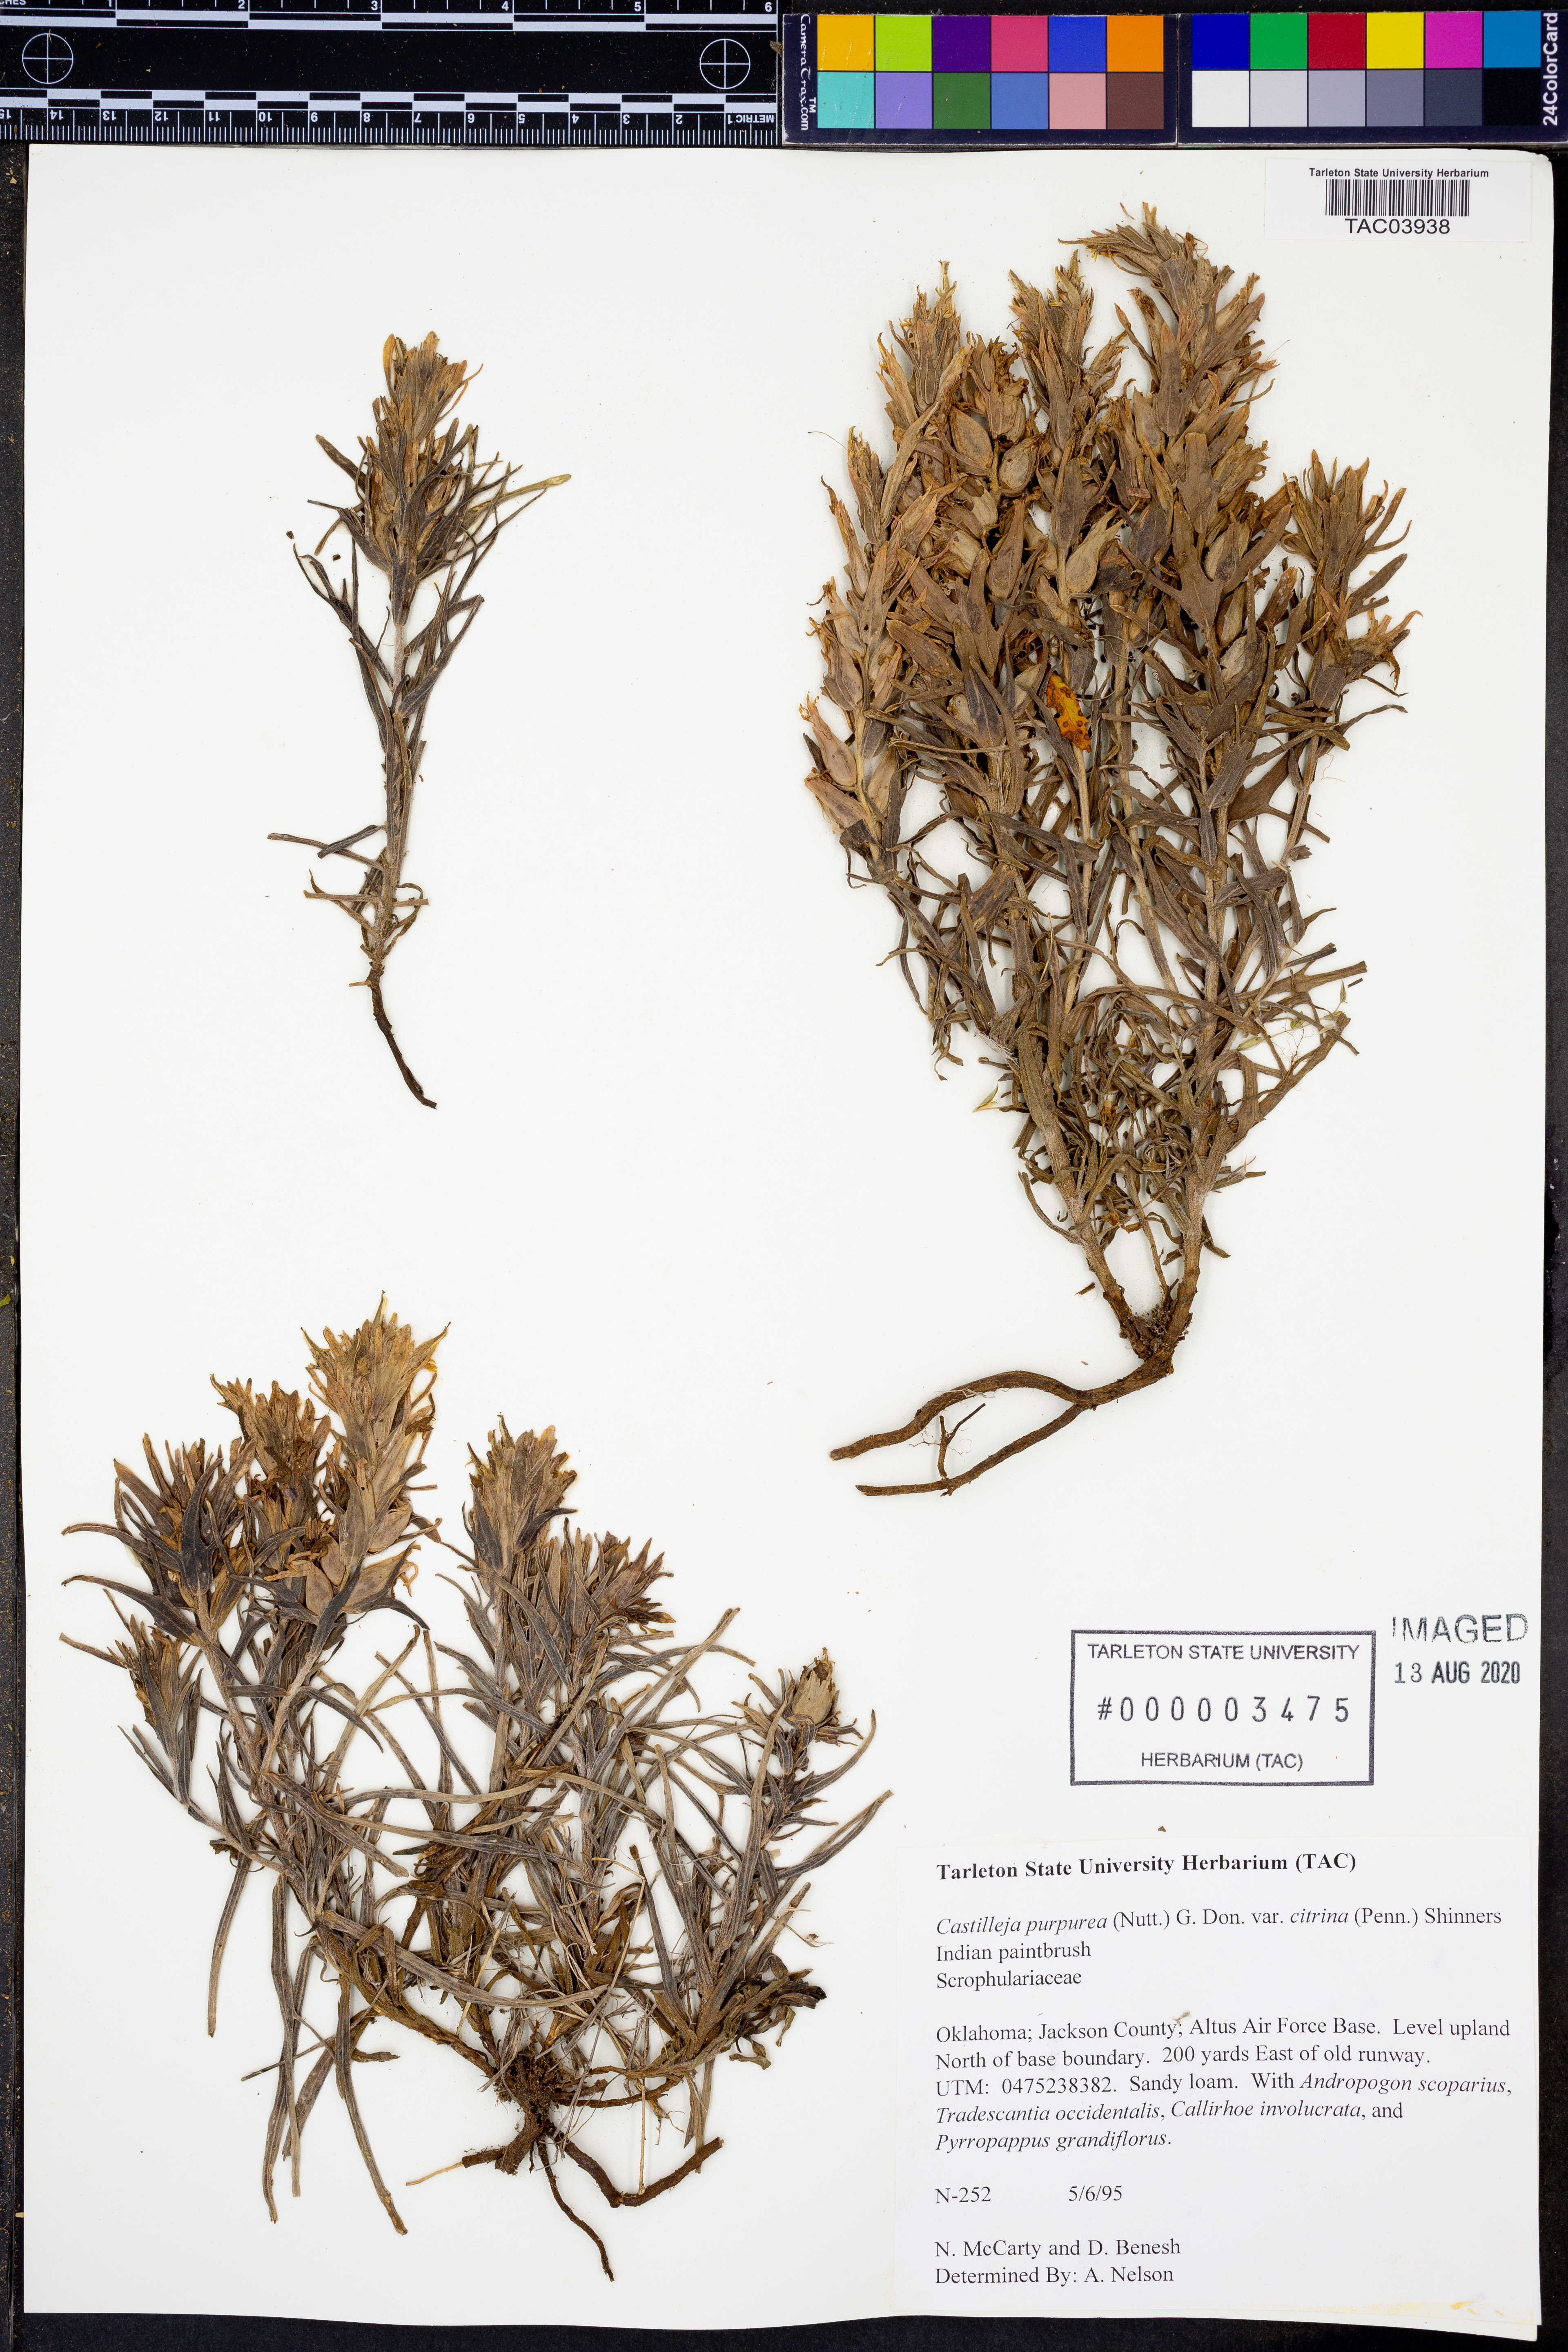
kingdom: Plantae
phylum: Tracheophyta
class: Magnoliopsida
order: Lamiales
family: Orobanchaceae
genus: Castilleja
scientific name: Castilleja citrina
